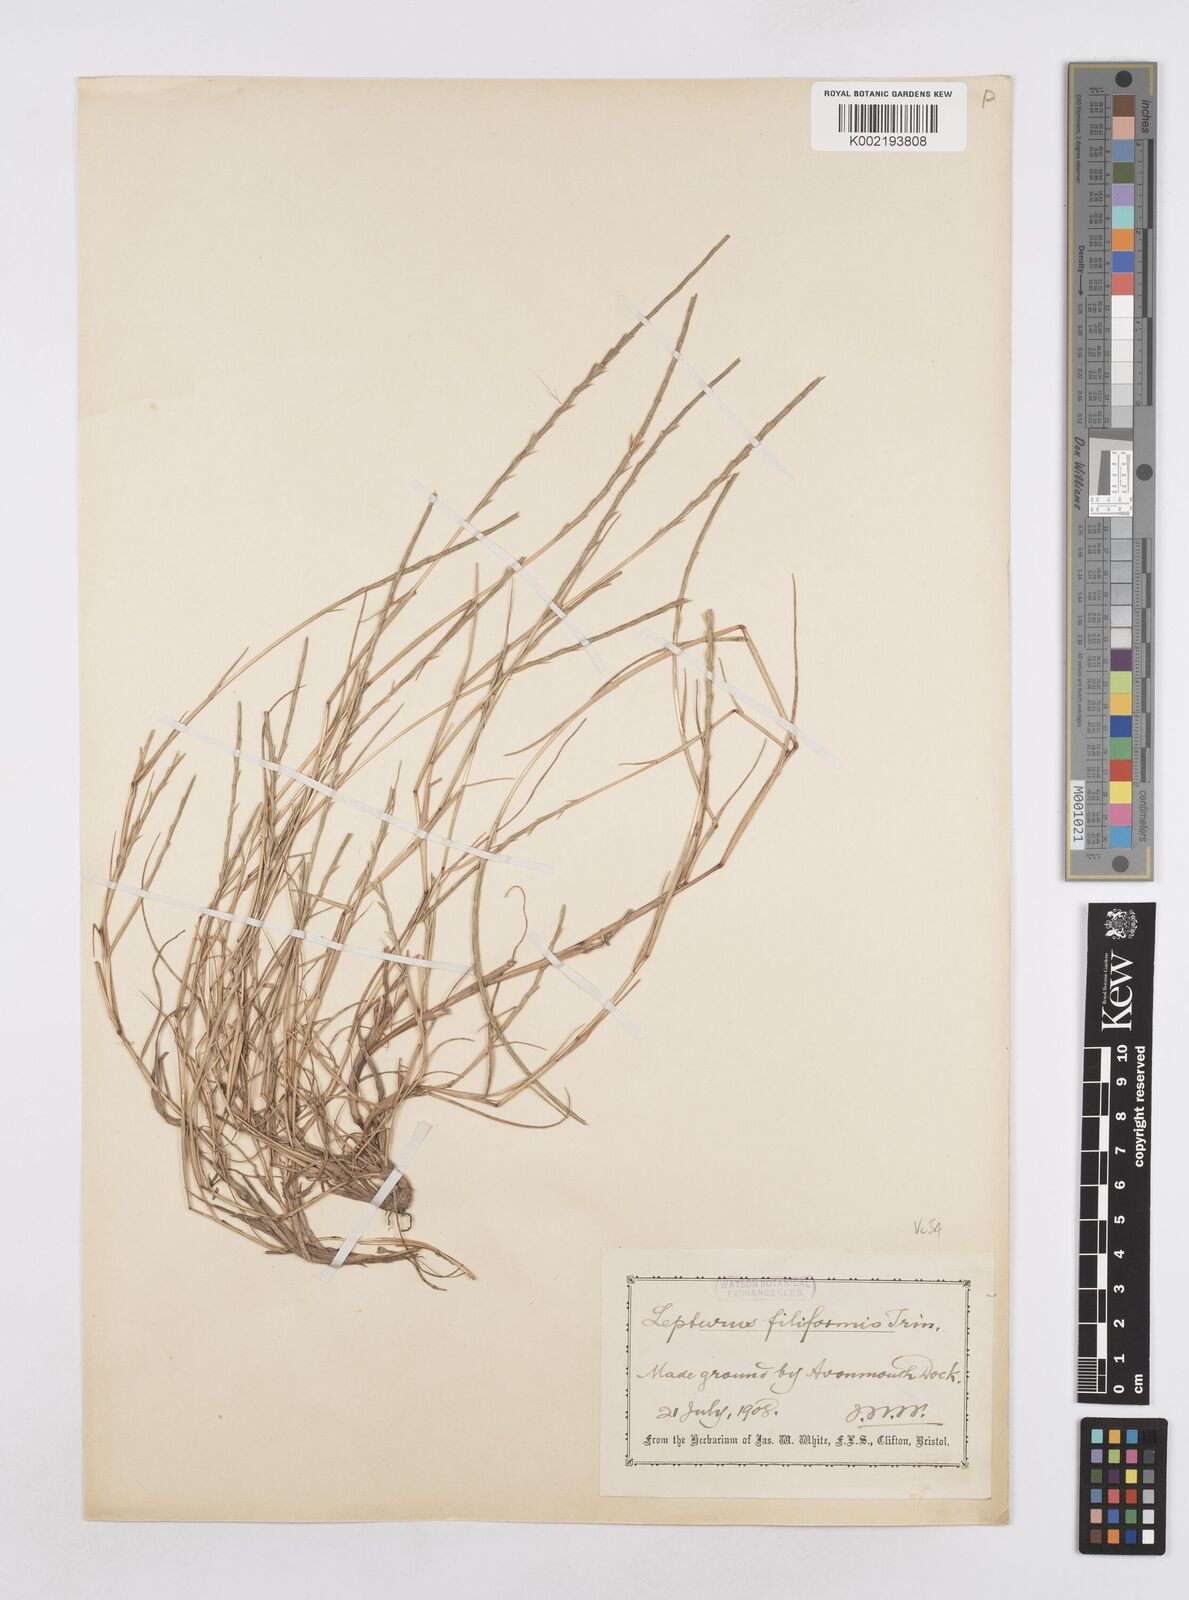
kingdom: Plantae
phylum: Tracheophyta
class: Liliopsida
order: Poales
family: Poaceae
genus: Parapholis
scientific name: Parapholis strigosa
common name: Hard-grass
